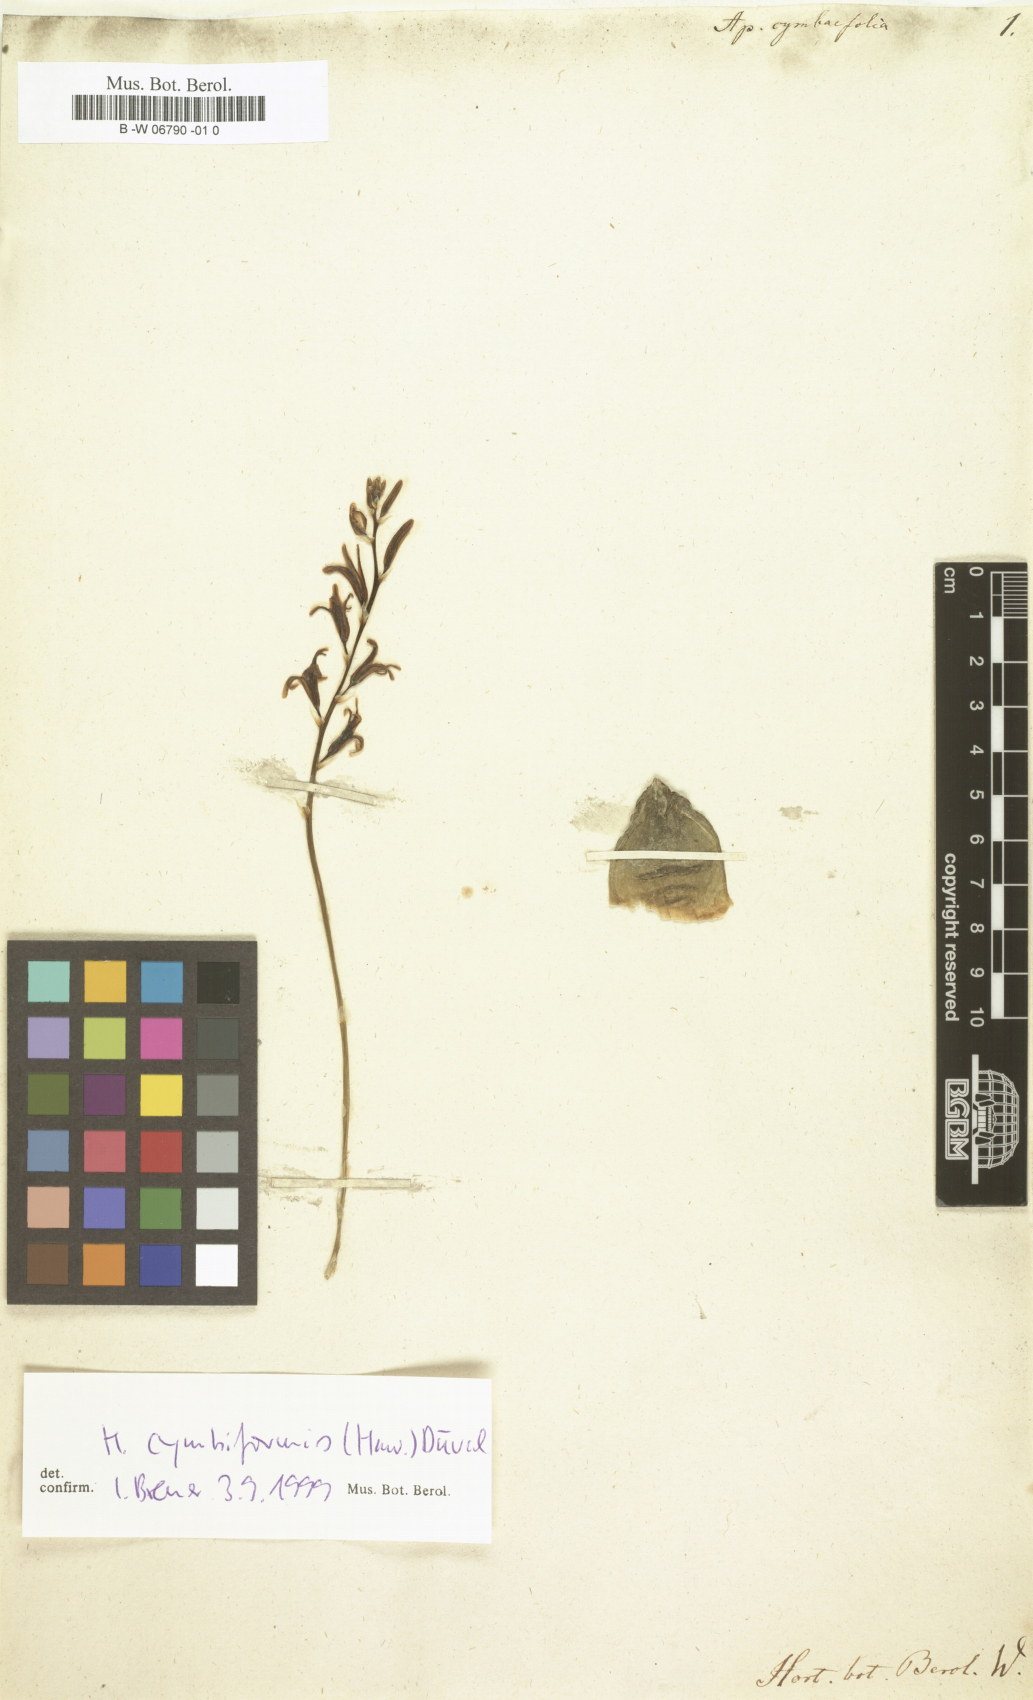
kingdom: Plantae
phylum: Tracheophyta
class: Liliopsida
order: Asparagales
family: Asphodelaceae
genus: Haworthia
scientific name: Haworthia cymbiformis
